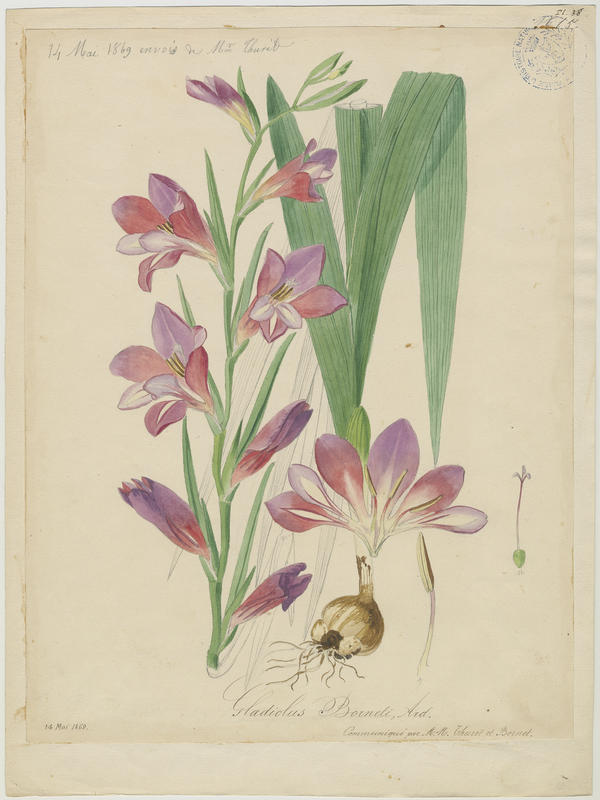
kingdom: Plantae
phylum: Tracheophyta
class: Liliopsida
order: Asparagales
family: Iridaceae
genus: Gladiolus
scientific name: Gladiolus byzantinus
